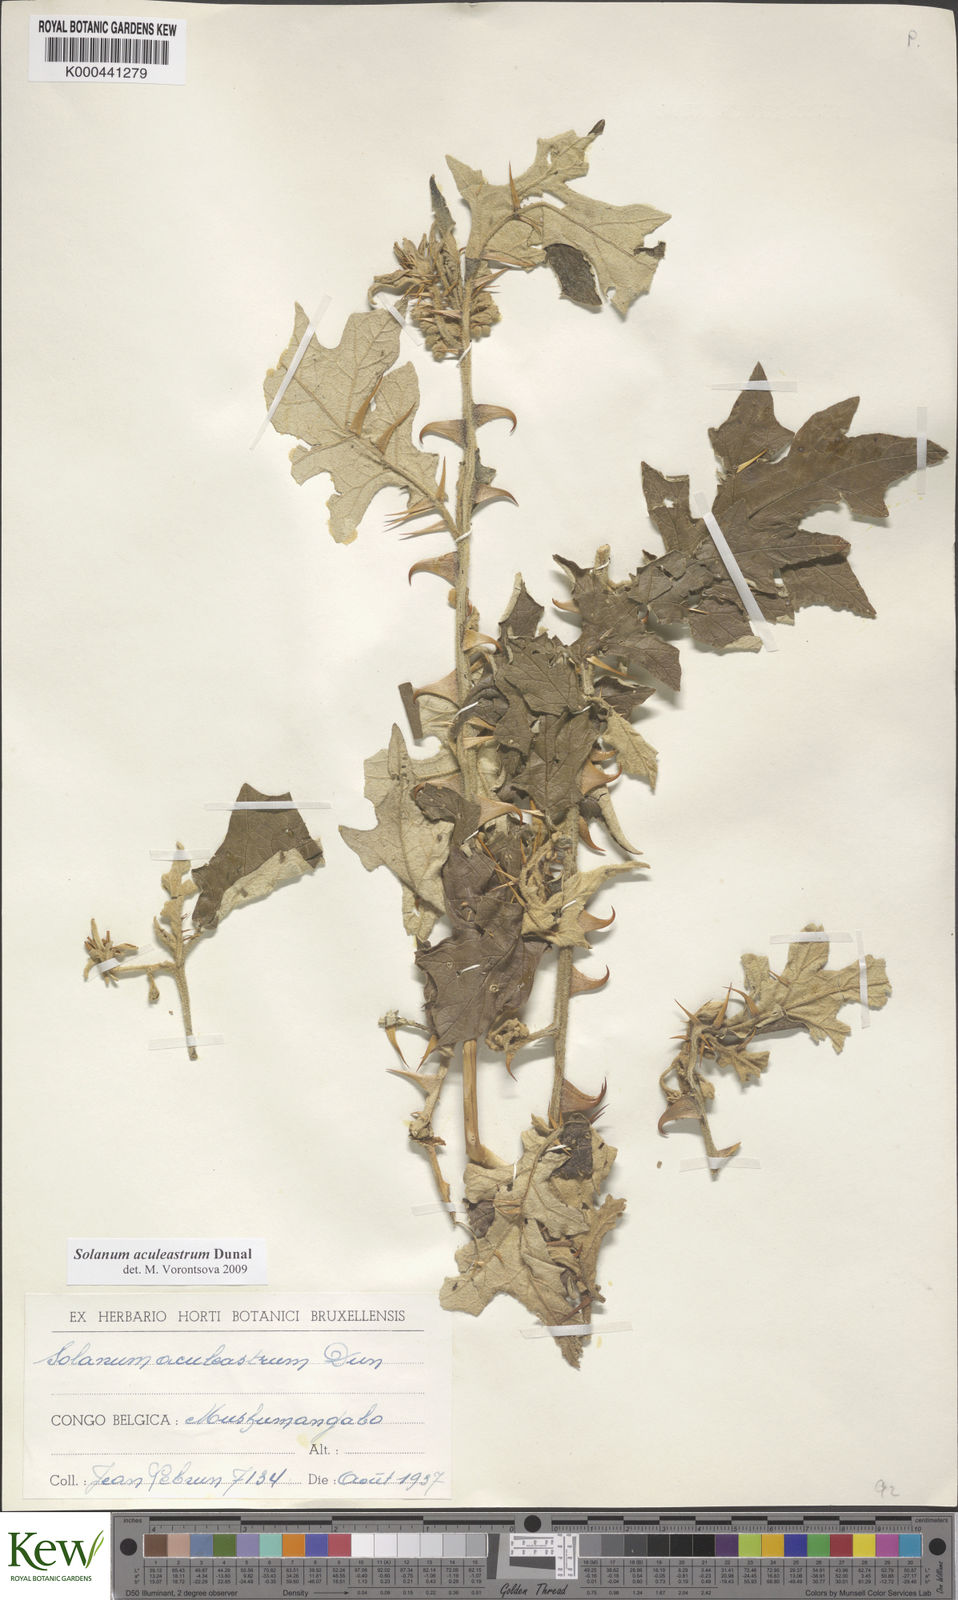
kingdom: Plantae
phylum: Tracheophyta
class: Magnoliopsida
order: Solanales
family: Solanaceae
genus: Solanum
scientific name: Solanum aculeastrum
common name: Goat bitter-apple
